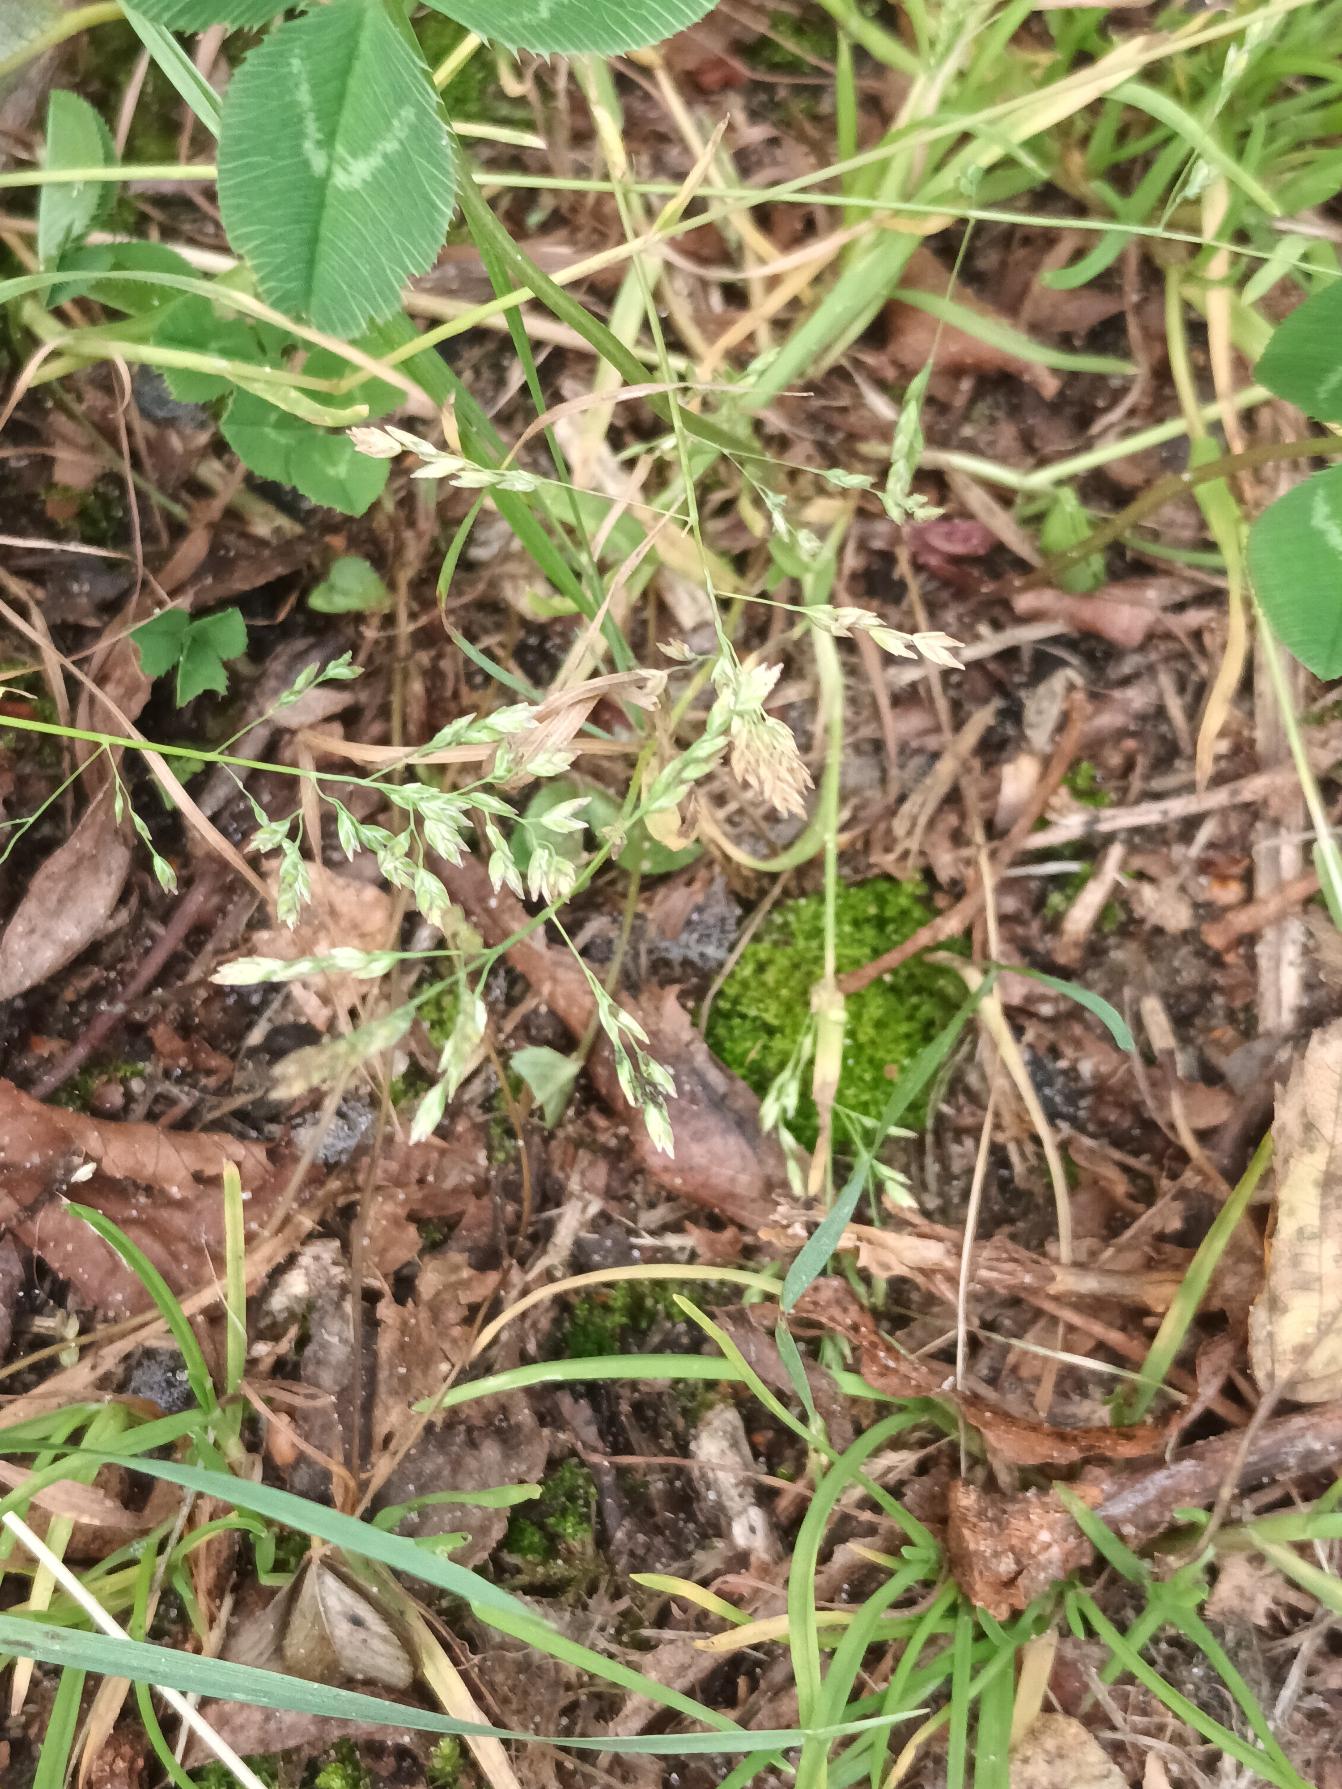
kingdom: Plantae
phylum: Tracheophyta
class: Liliopsida
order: Poales
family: Poaceae
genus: Poa
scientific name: Poa annua
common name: Enårig rapgræs
